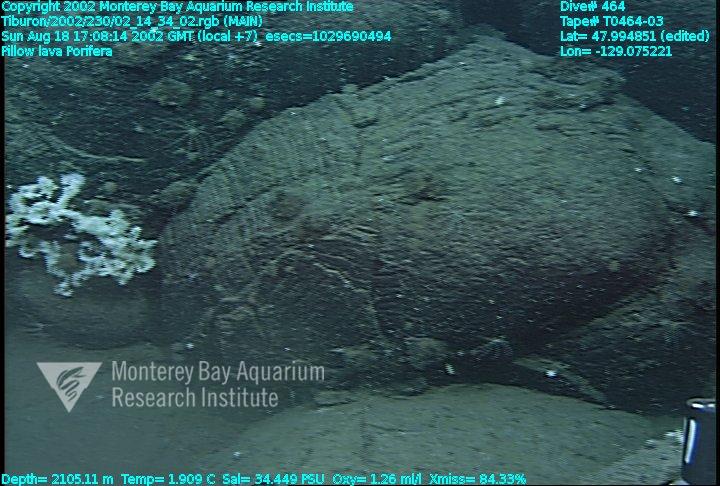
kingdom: Animalia
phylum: Porifera
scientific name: Porifera
